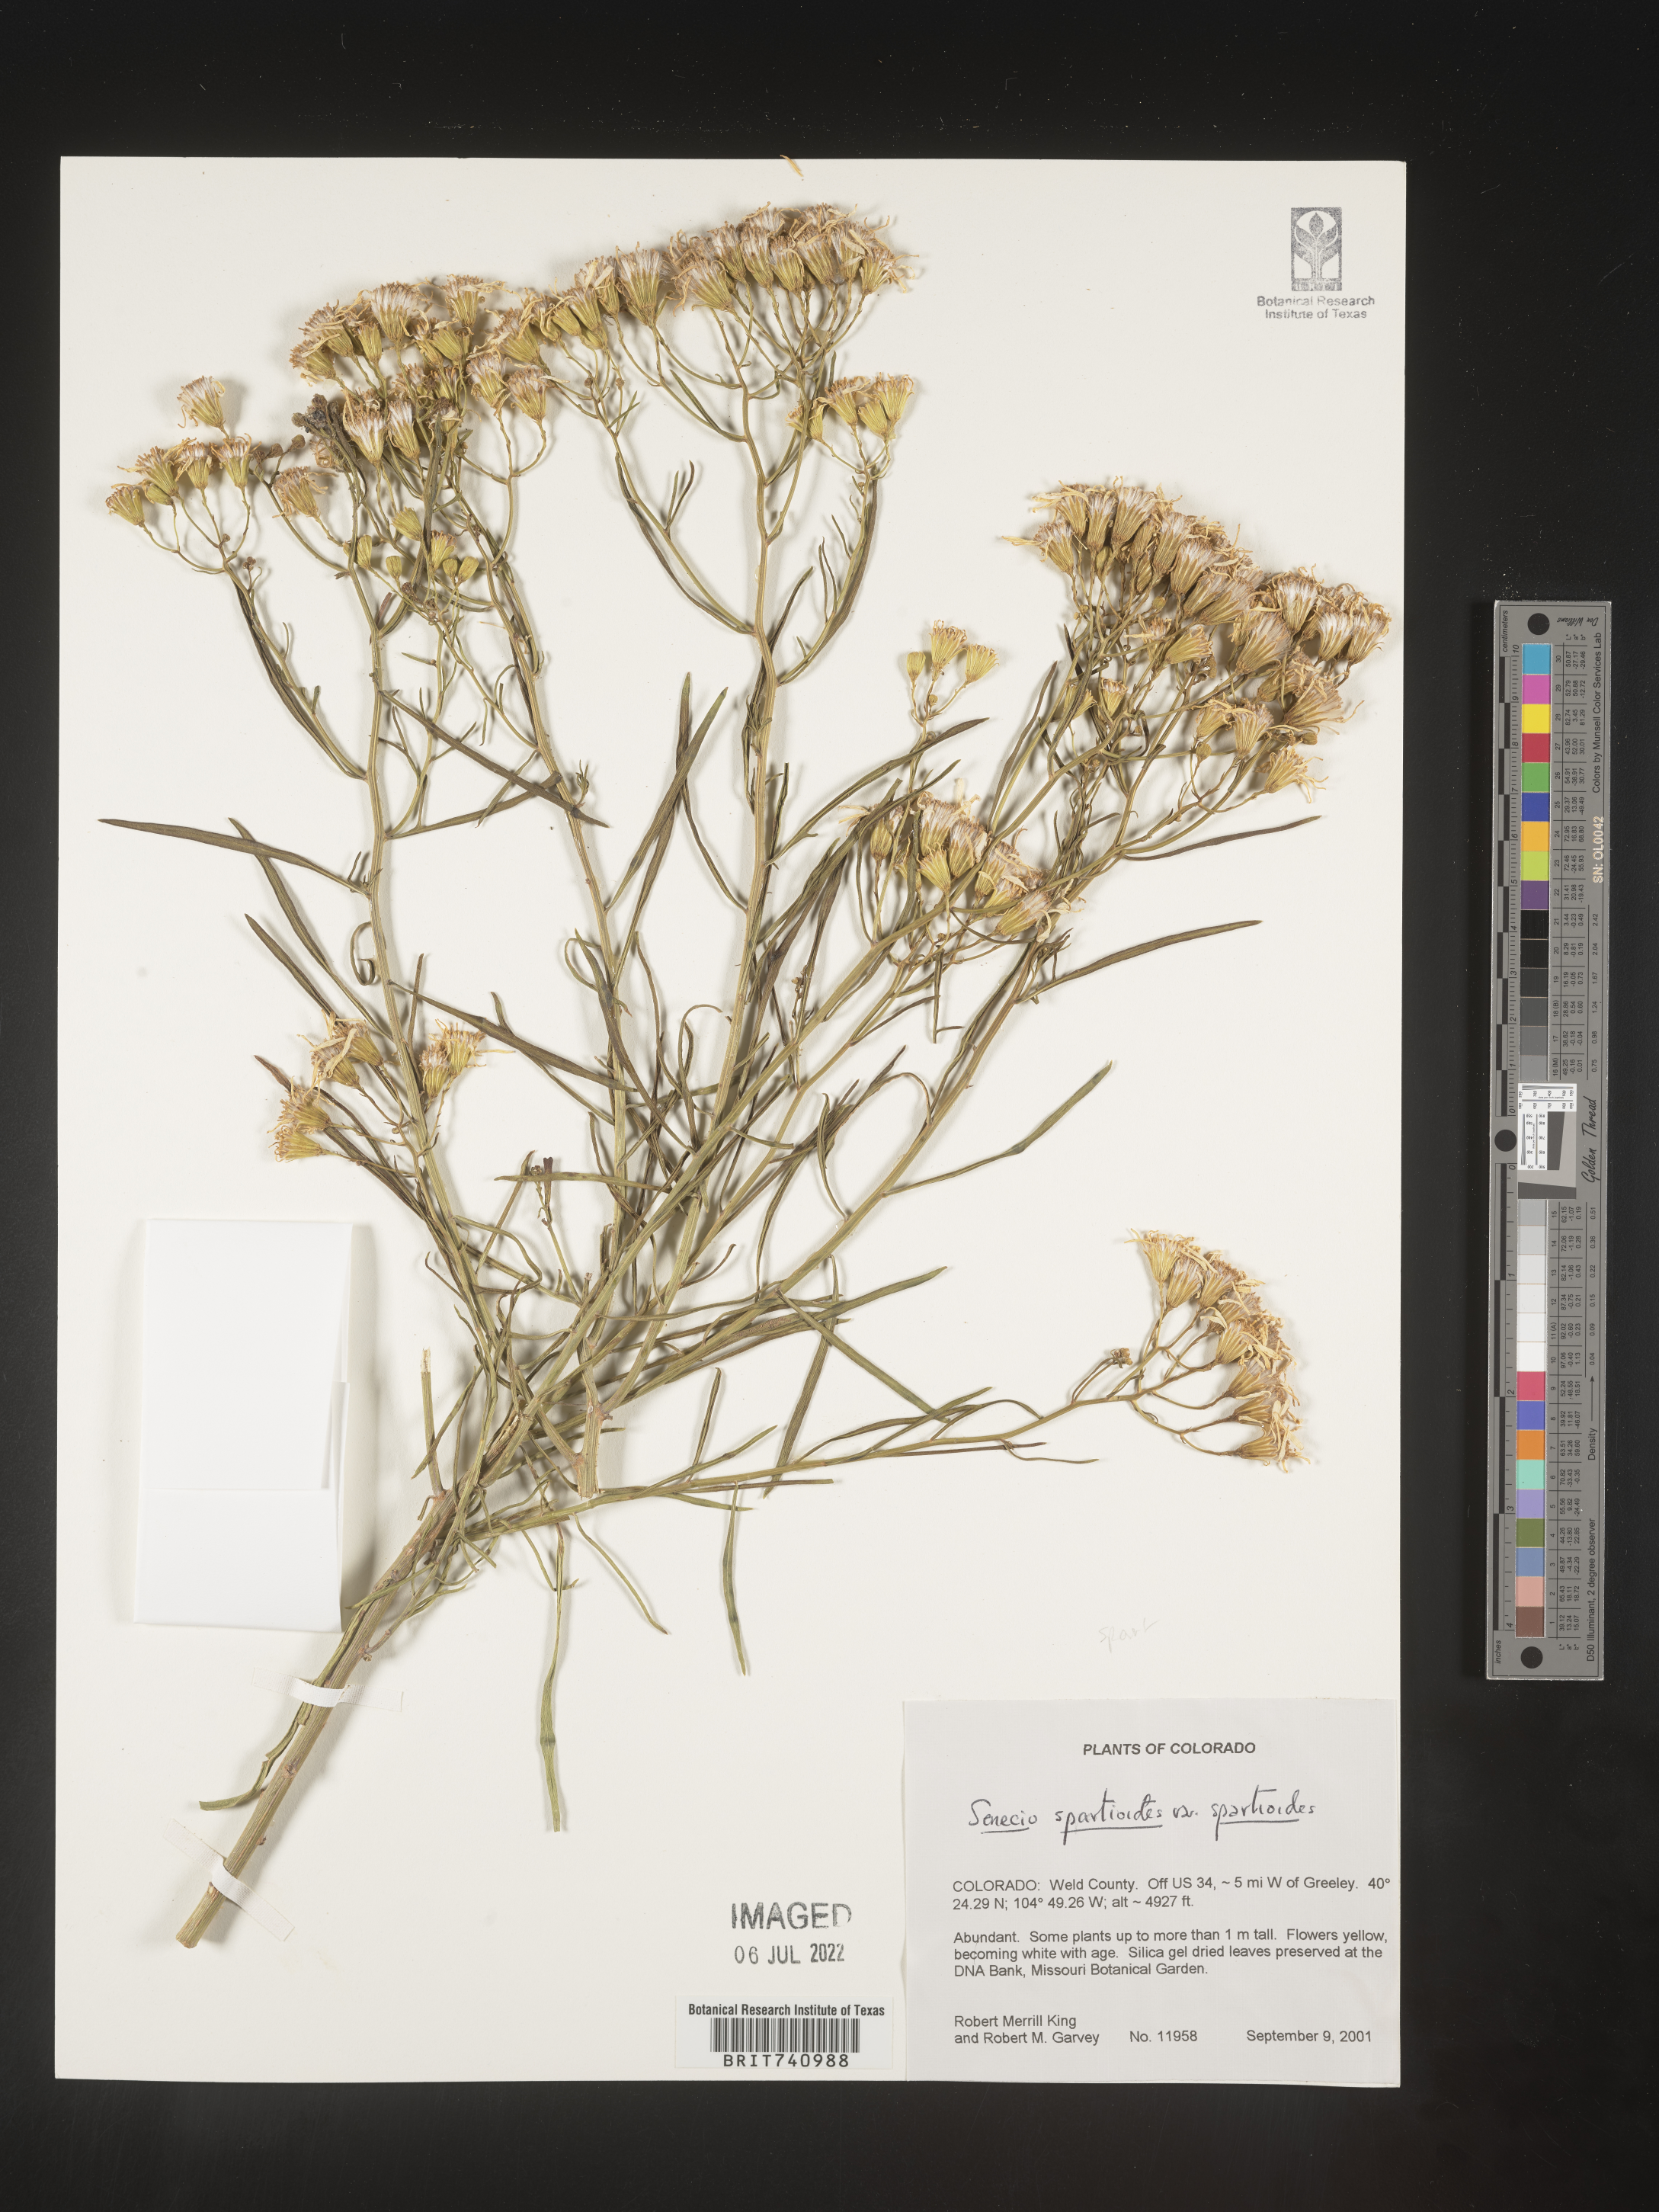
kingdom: Plantae
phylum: Tracheophyta
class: Magnoliopsida
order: Asterales
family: Asteraceae
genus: Senecio
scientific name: Senecio spartioides
